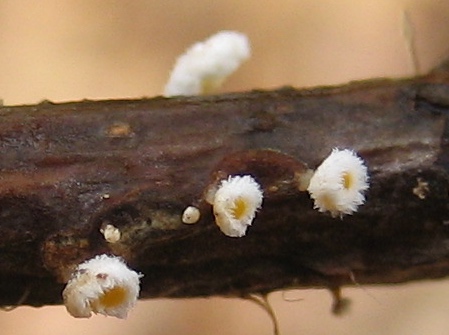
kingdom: Fungi
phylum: Ascomycota
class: Leotiomycetes
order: Helotiales
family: Lachnaceae
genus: Lachnum
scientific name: Lachnum
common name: frynseskive
